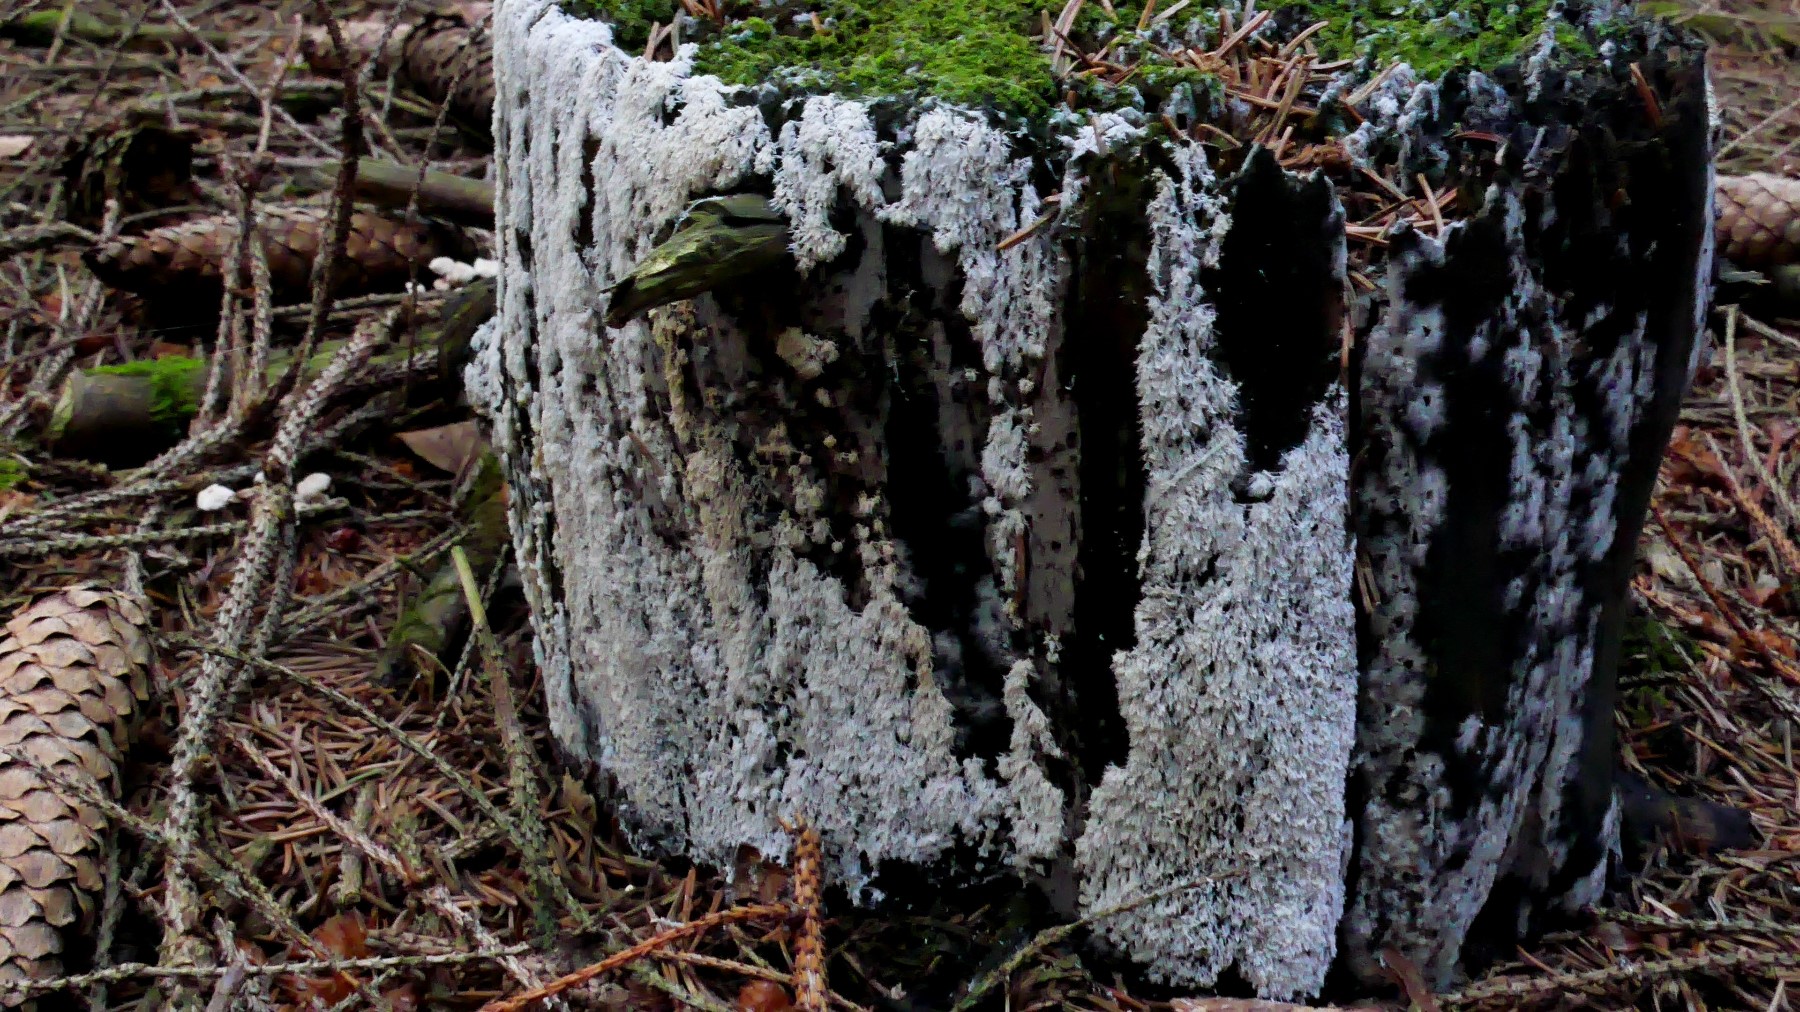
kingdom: Protozoa
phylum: Mycetozoa
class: Protosteliomycetes
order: Ceratiomyxales
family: Ceratiomyxaceae
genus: Ceratiomyxa
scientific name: Ceratiomyxa fruticulosa
